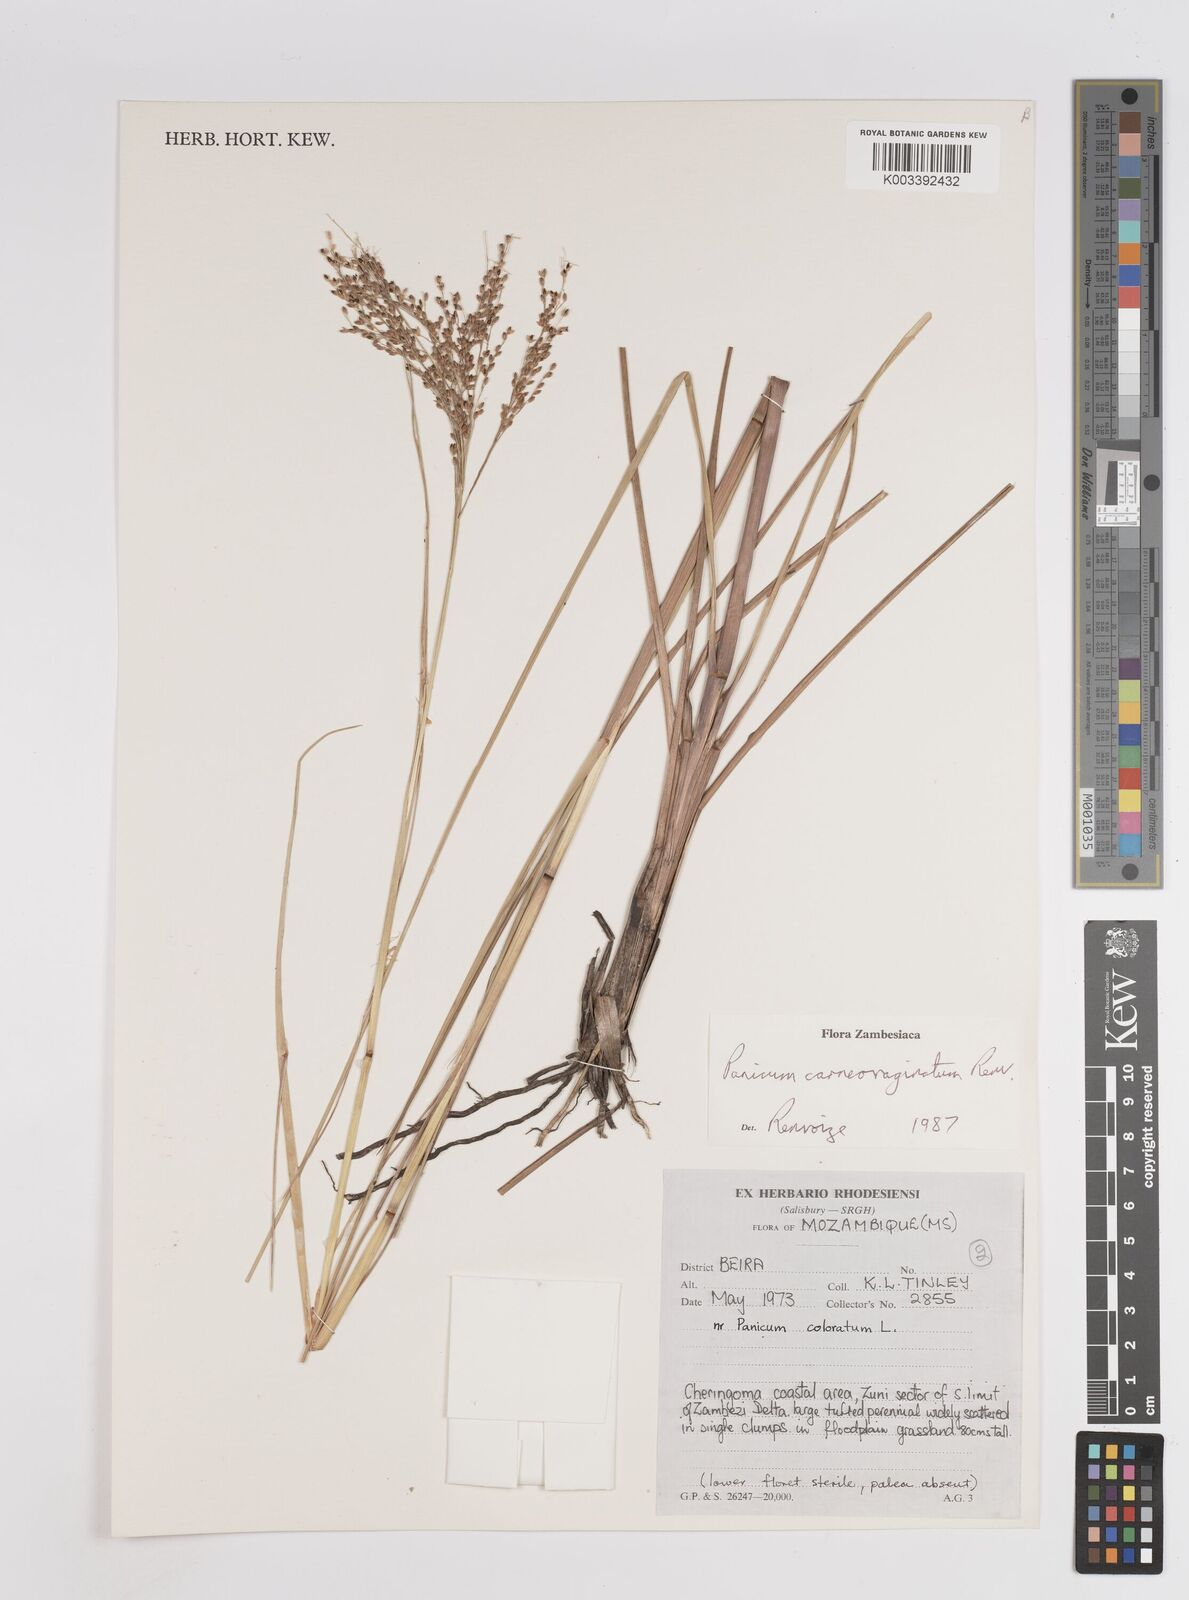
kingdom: Plantae
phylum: Tracheophyta
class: Liliopsida
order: Poales
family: Poaceae
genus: Panicum
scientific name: Panicum carneovaginatum
